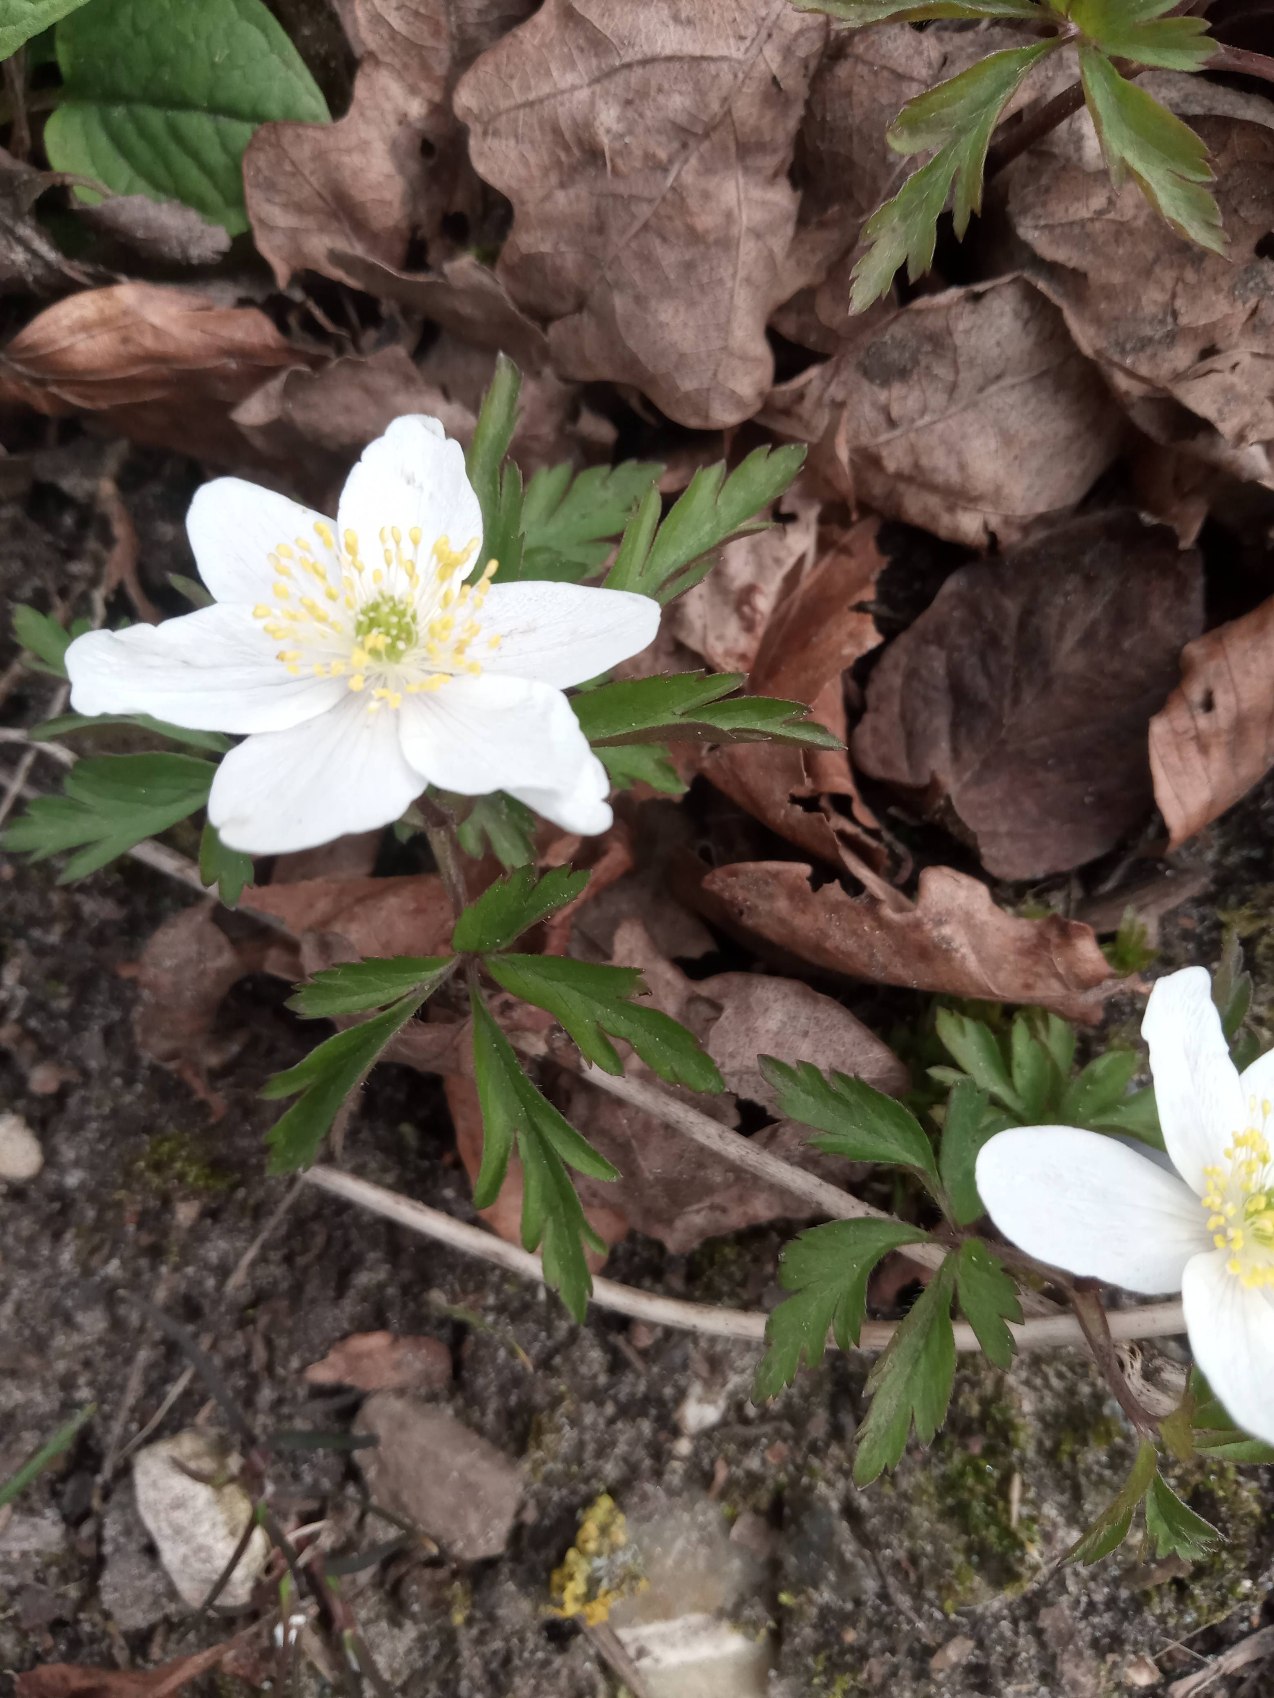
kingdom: Plantae
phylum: Tracheophyta
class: Magnoliopsida
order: Ranunculales
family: Ranunculaceae
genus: Anemone
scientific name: Anemone nemorosa
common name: Hvid anemone
